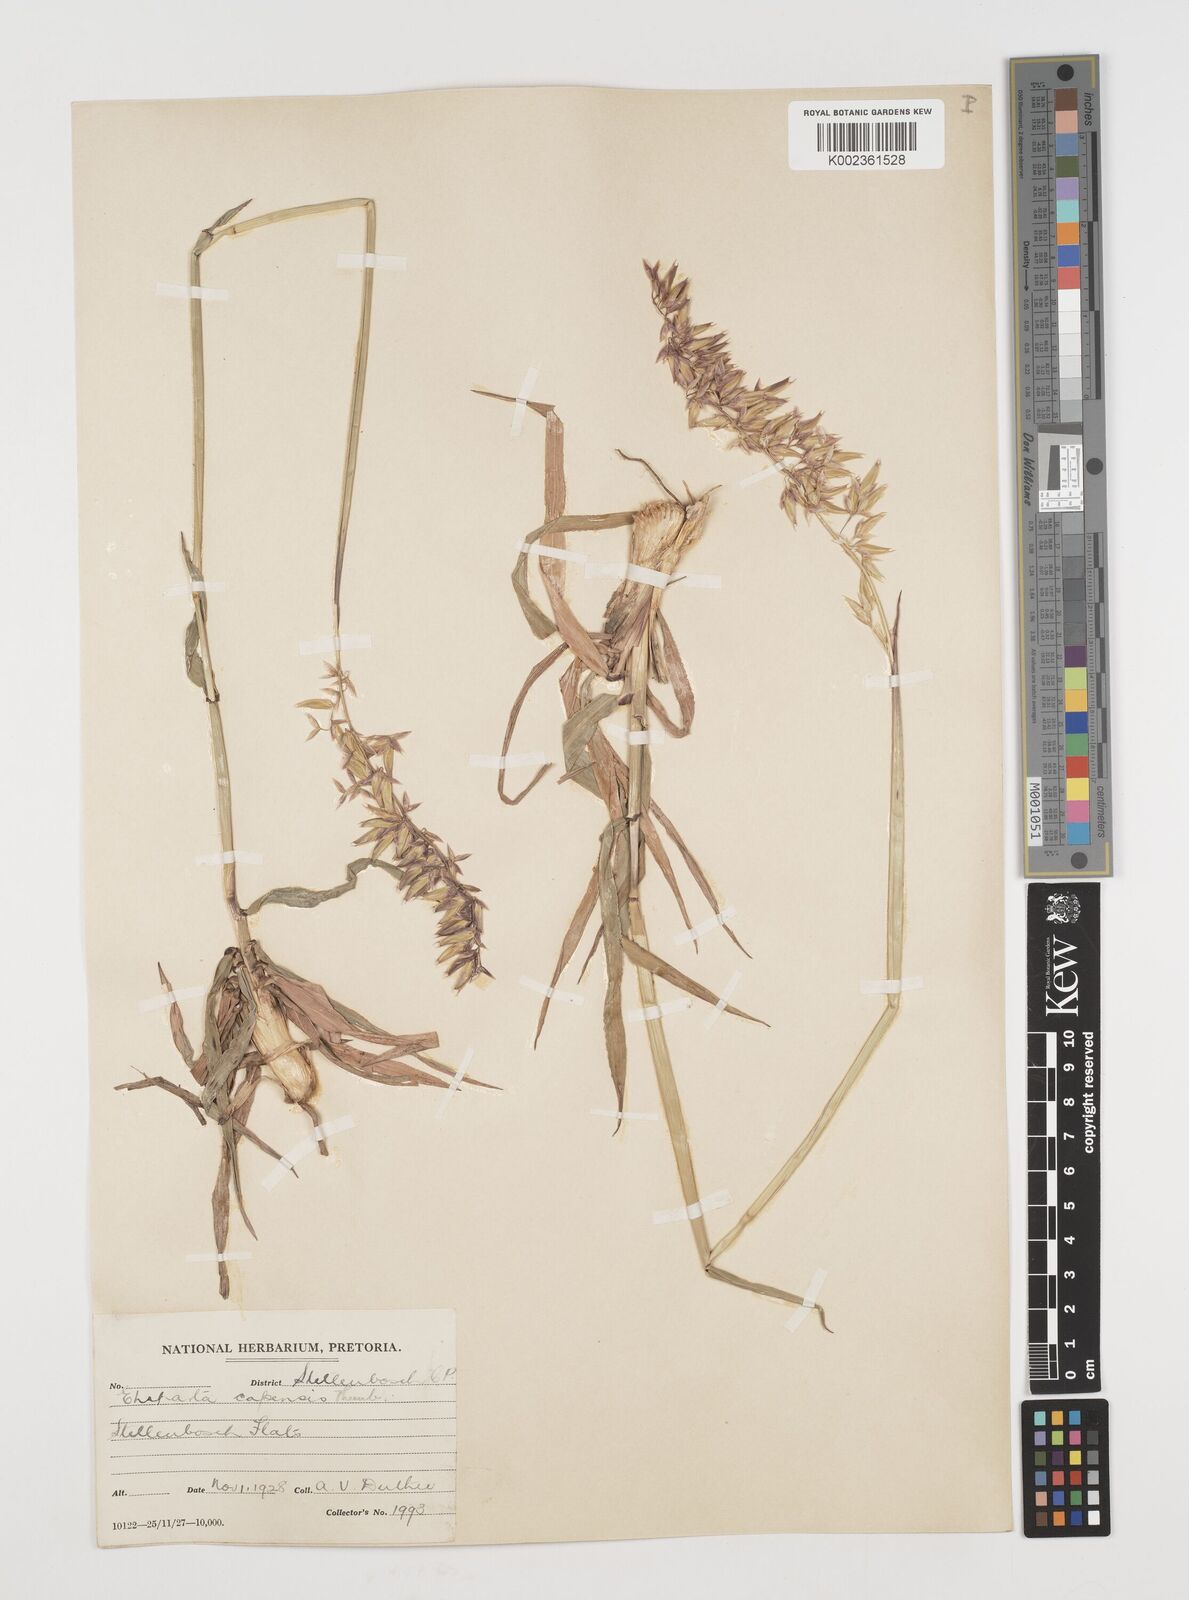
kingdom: Plantae
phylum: Tracheophyta
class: Liliopsida
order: Poales
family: Poaceae
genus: Ehrharta
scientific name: Ehrharta capensis
